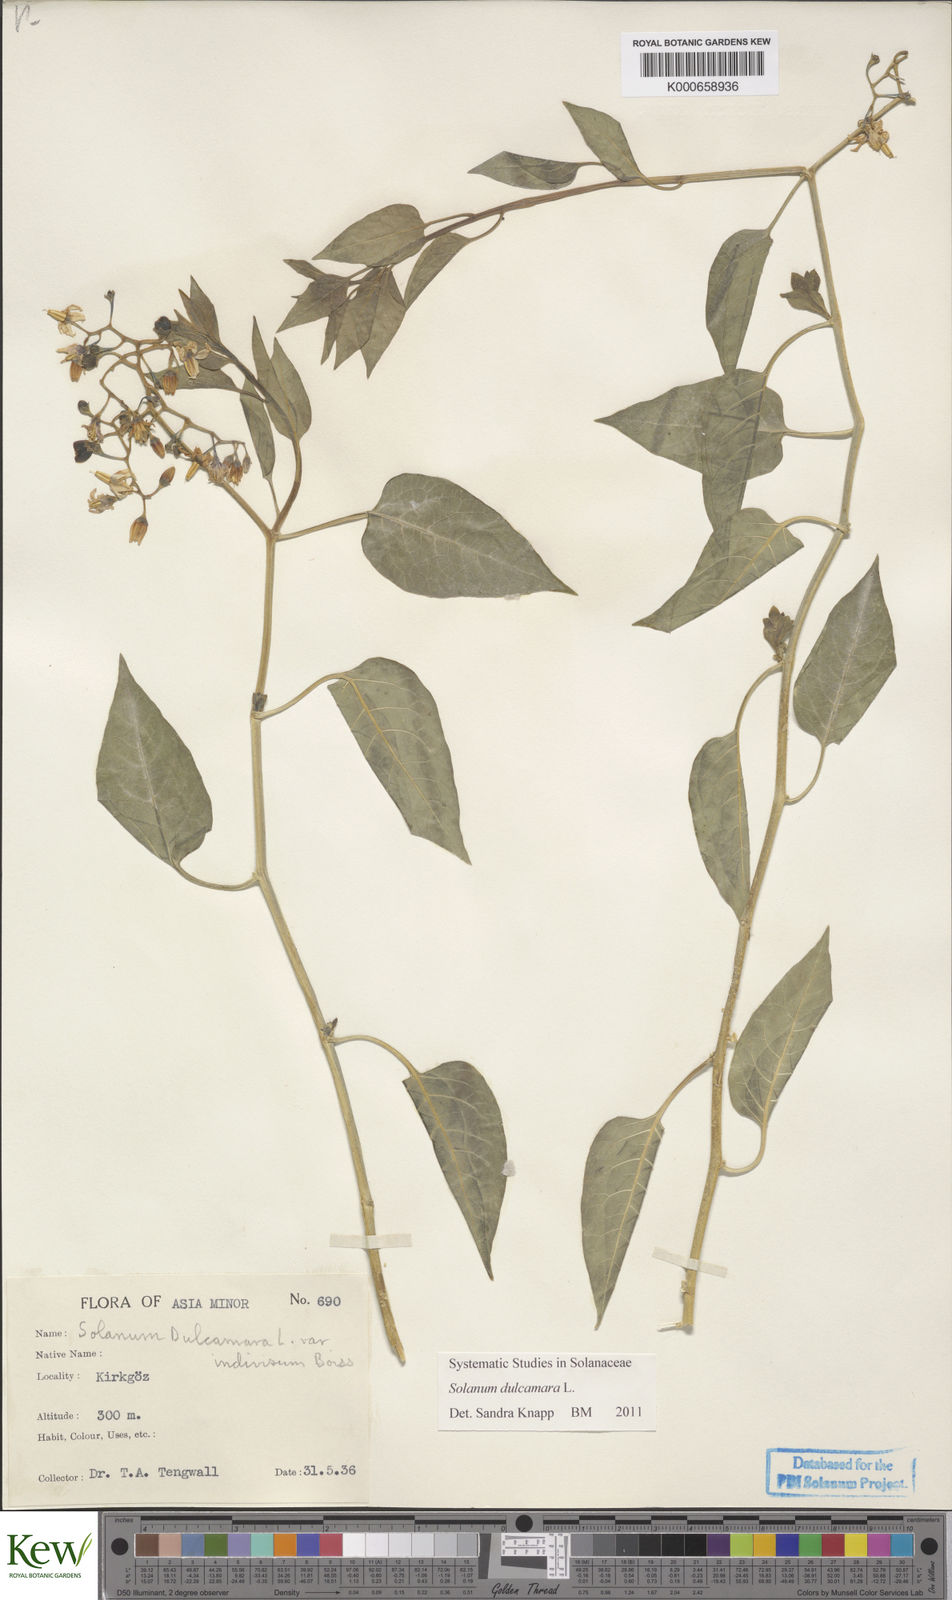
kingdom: Plantae
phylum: Tracheophyta
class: Magnoliopsida
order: Solanales
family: Solanaceae
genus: Solanum
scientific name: Solanum dulcamara
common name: Climbing nightshade
